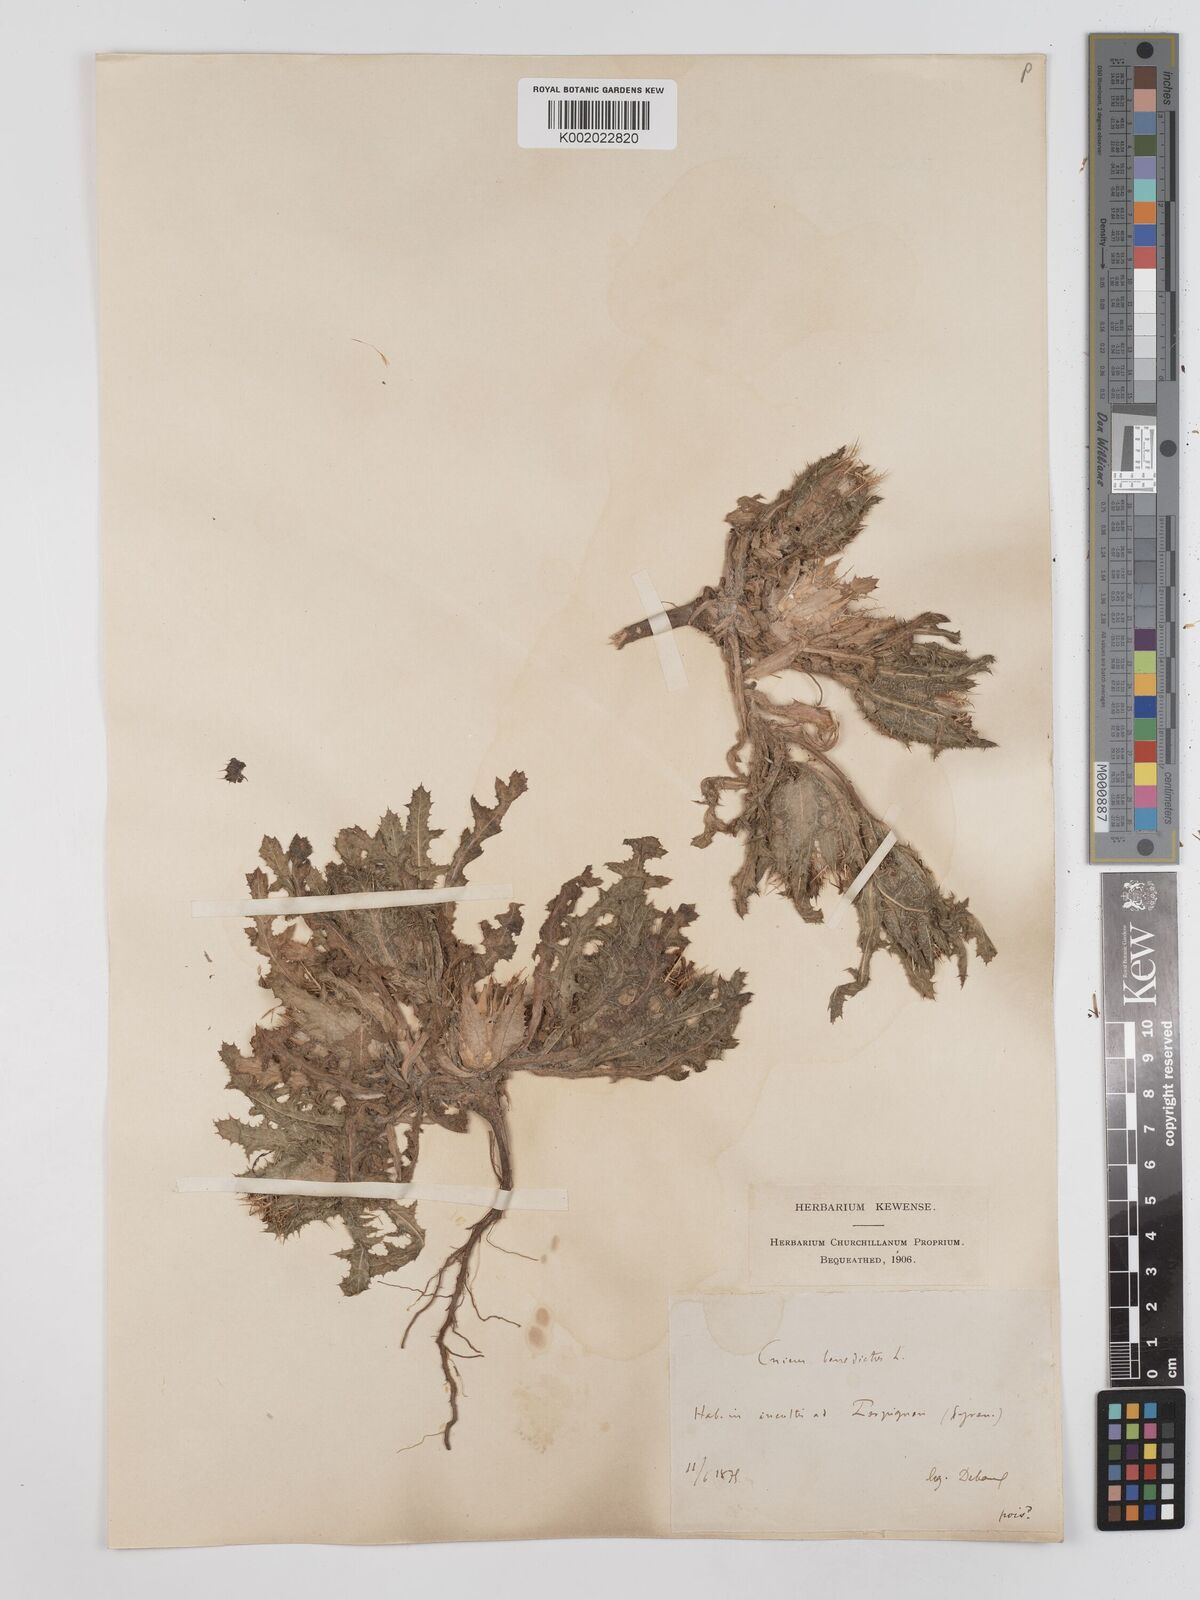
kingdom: Plantae
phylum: Tracheophyta
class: Magnoliopsida
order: Asterales
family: Asteraceae
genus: Centaurea
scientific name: Centaurea benedicta
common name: Blessed thistle
